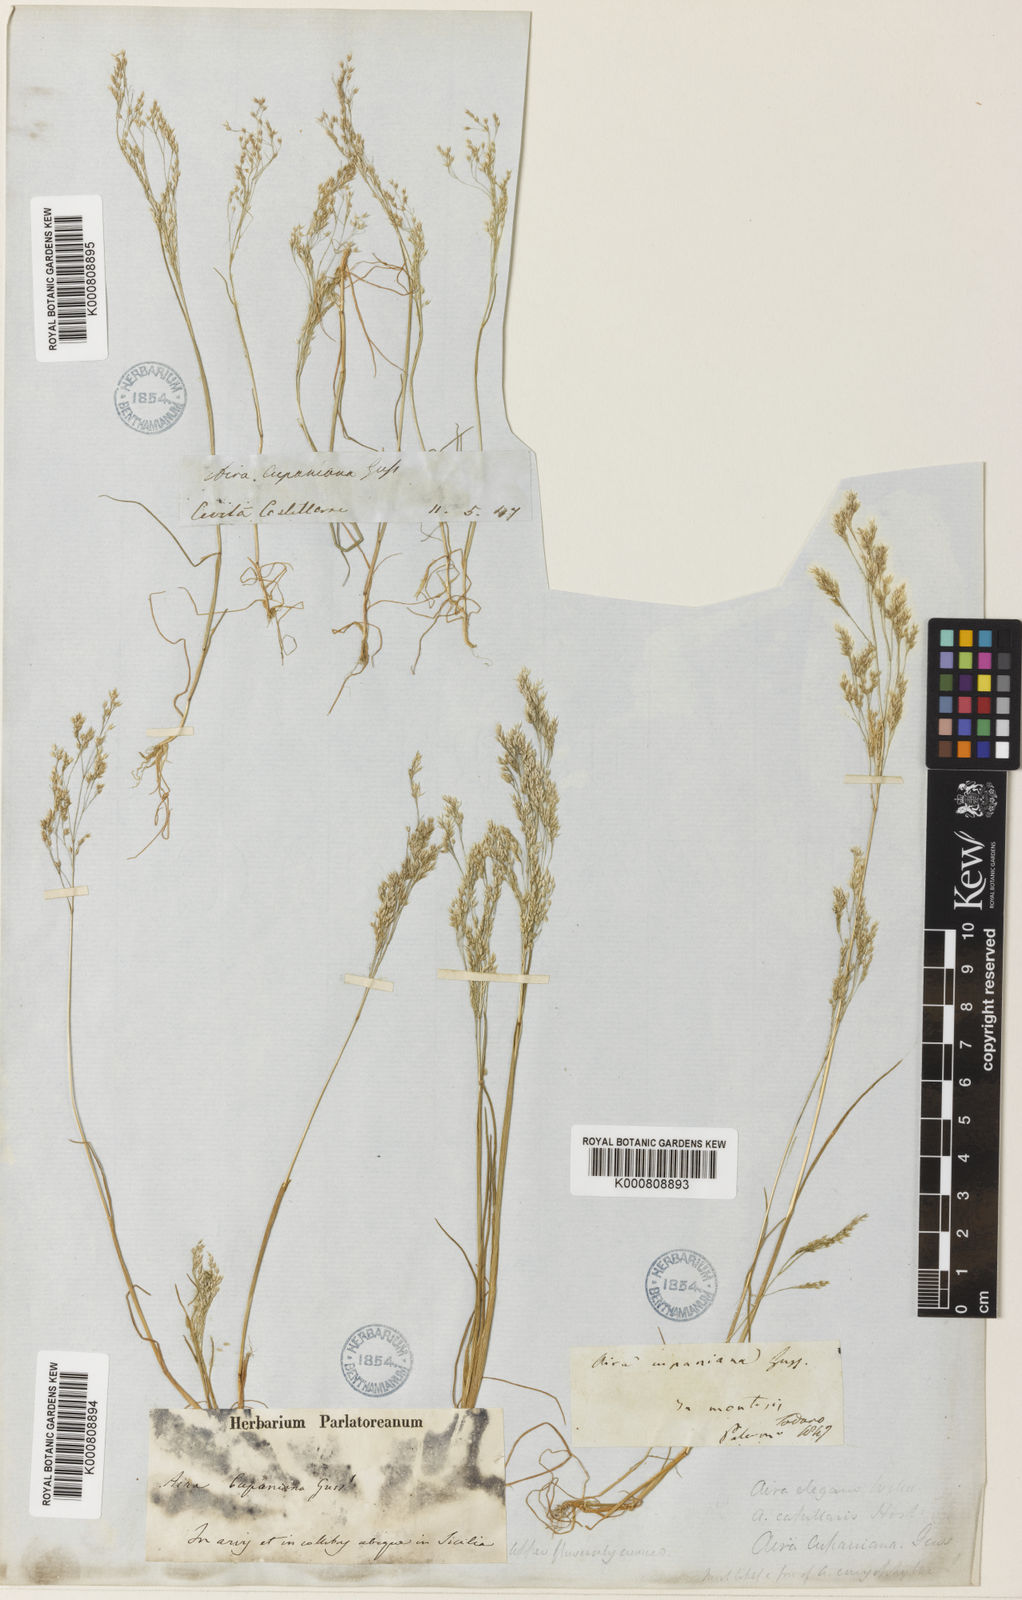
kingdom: Plantae
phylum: Tracheophyta
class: Liliopsida
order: Poales
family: Poaceae
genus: Aira
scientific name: Aira cupaniana
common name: Silver hairgrass
